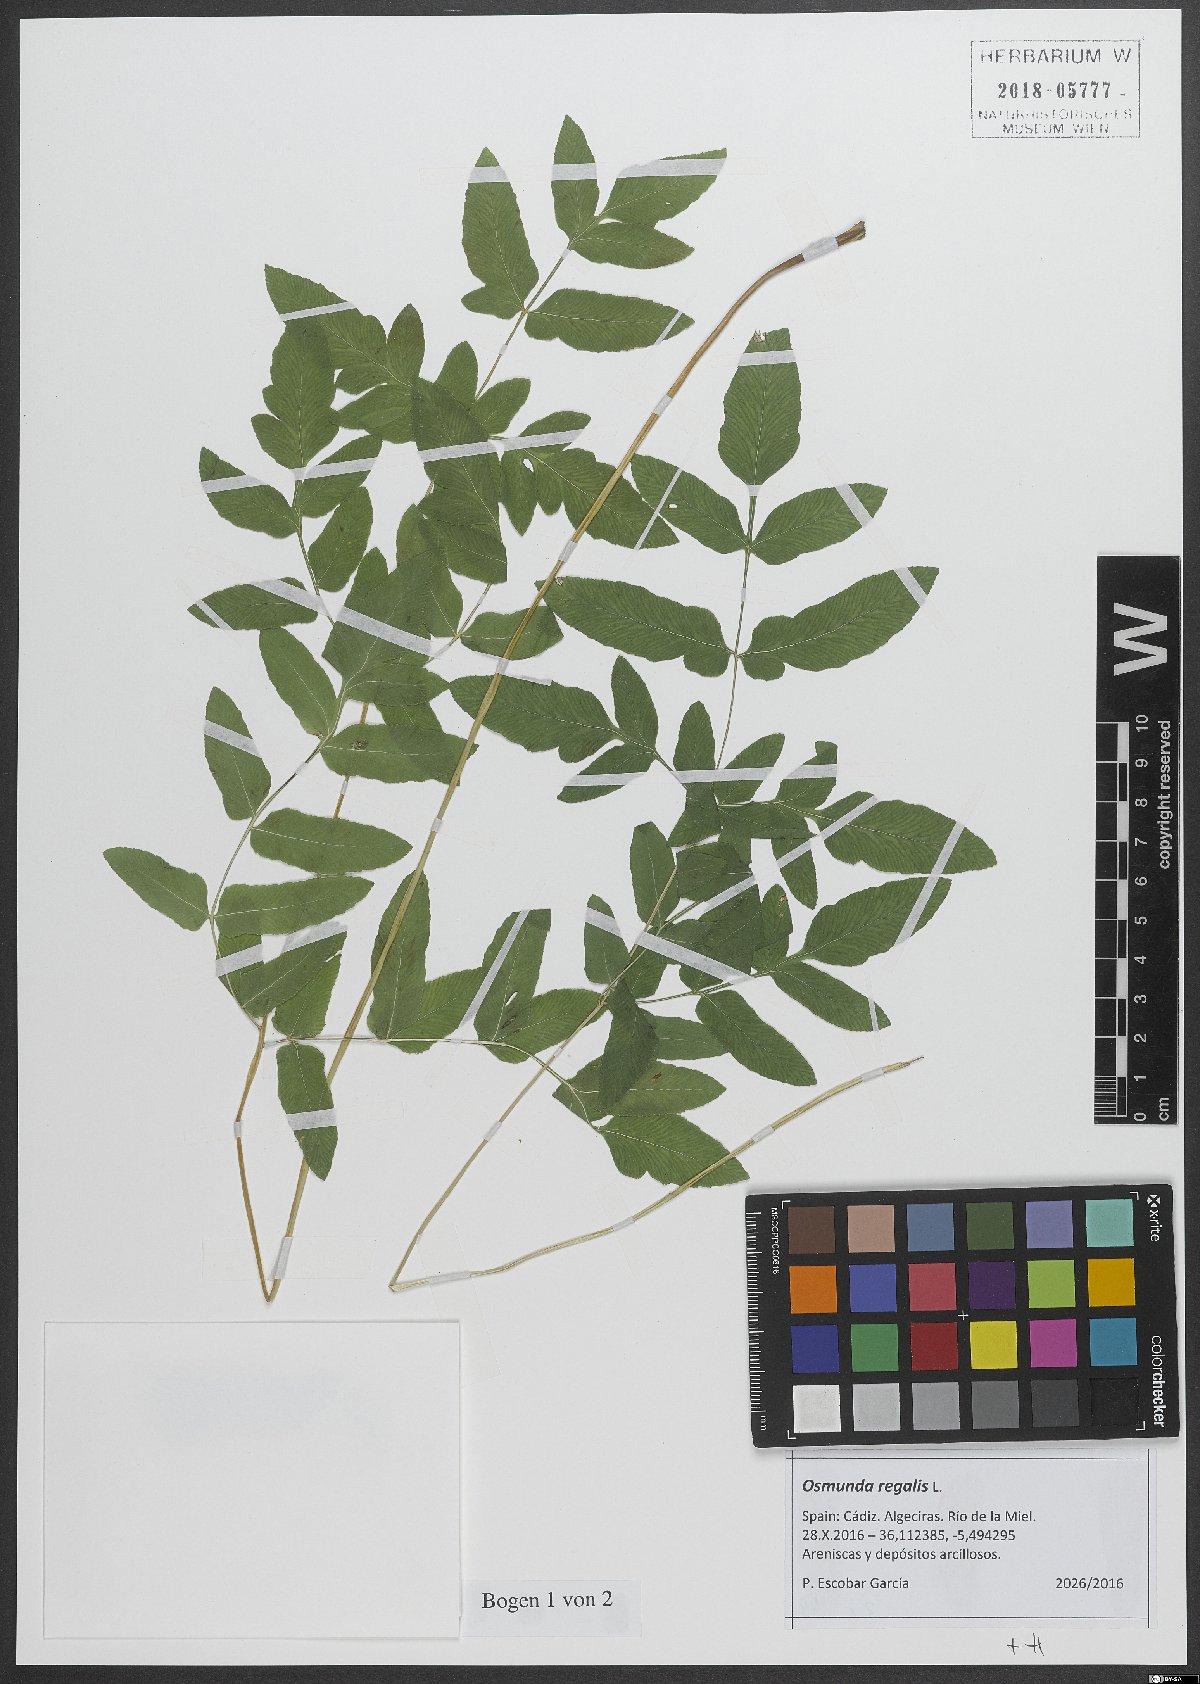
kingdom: Plantae
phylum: Tracheophyta
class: Polypodiopsida
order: Osmundales
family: Osmundaceae
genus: Osmunda
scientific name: Osmunda regalis
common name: Royal fern
